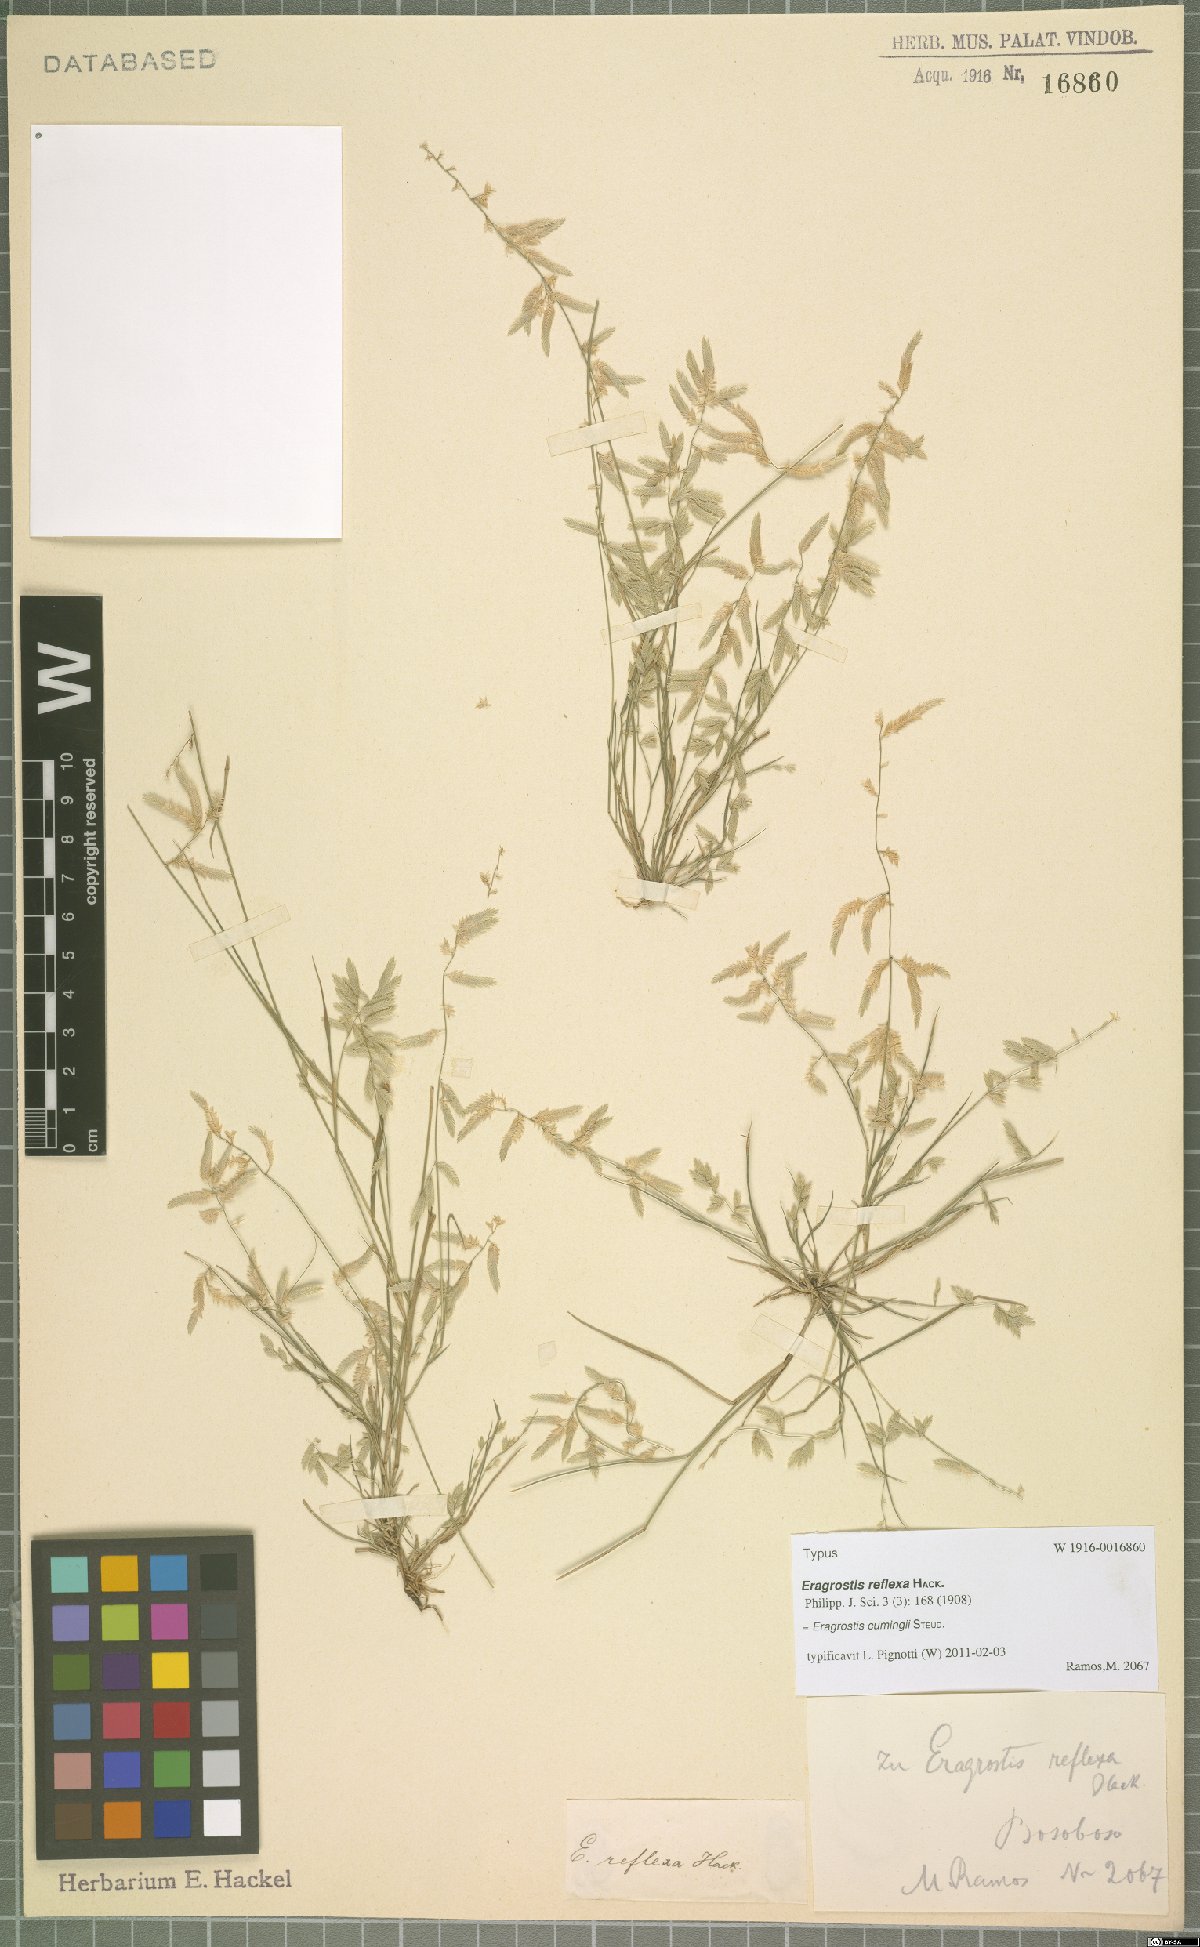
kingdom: Plantae
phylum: Tracheophyta
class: Liliopsida
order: Poales
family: Poaceae
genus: Eragrostis
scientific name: Eragrostis cumingii
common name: Cuming's lovegrass
